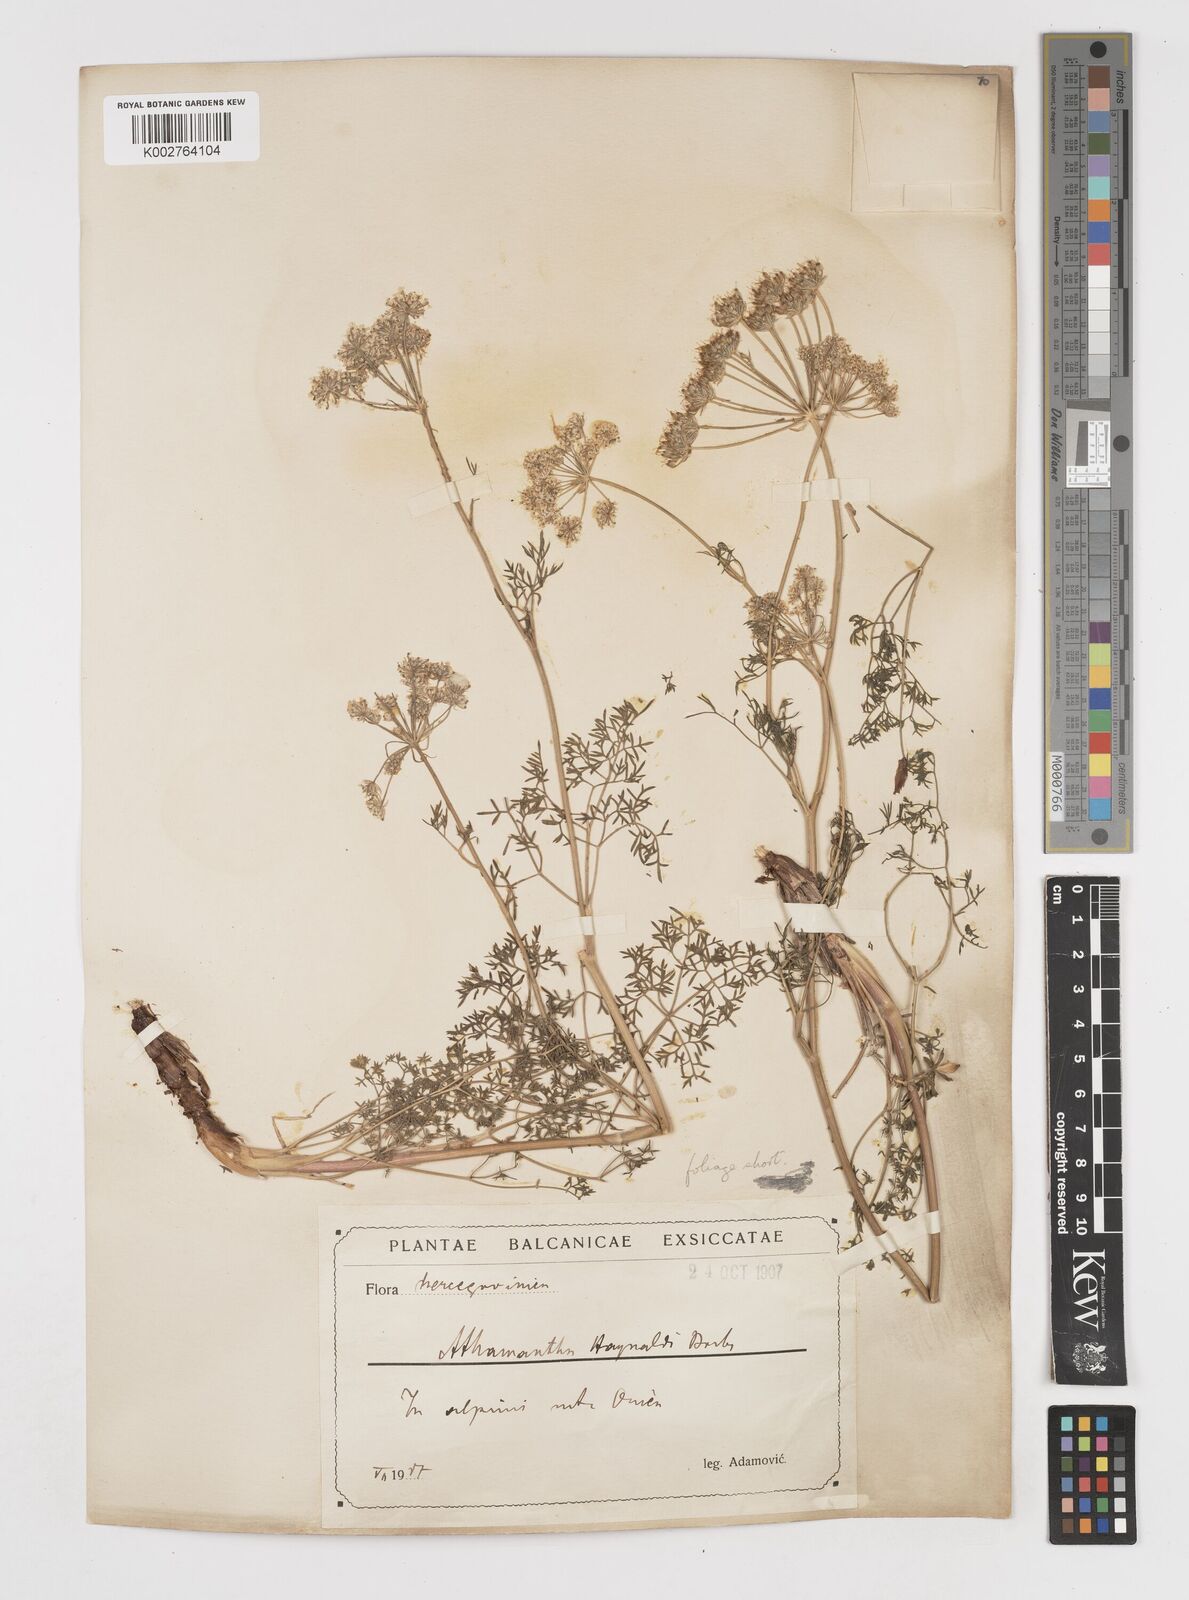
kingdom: Plantae
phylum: Tracheophyta
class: Magnoliopsida
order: Apiales
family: Apiaceae
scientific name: Apiaceae
